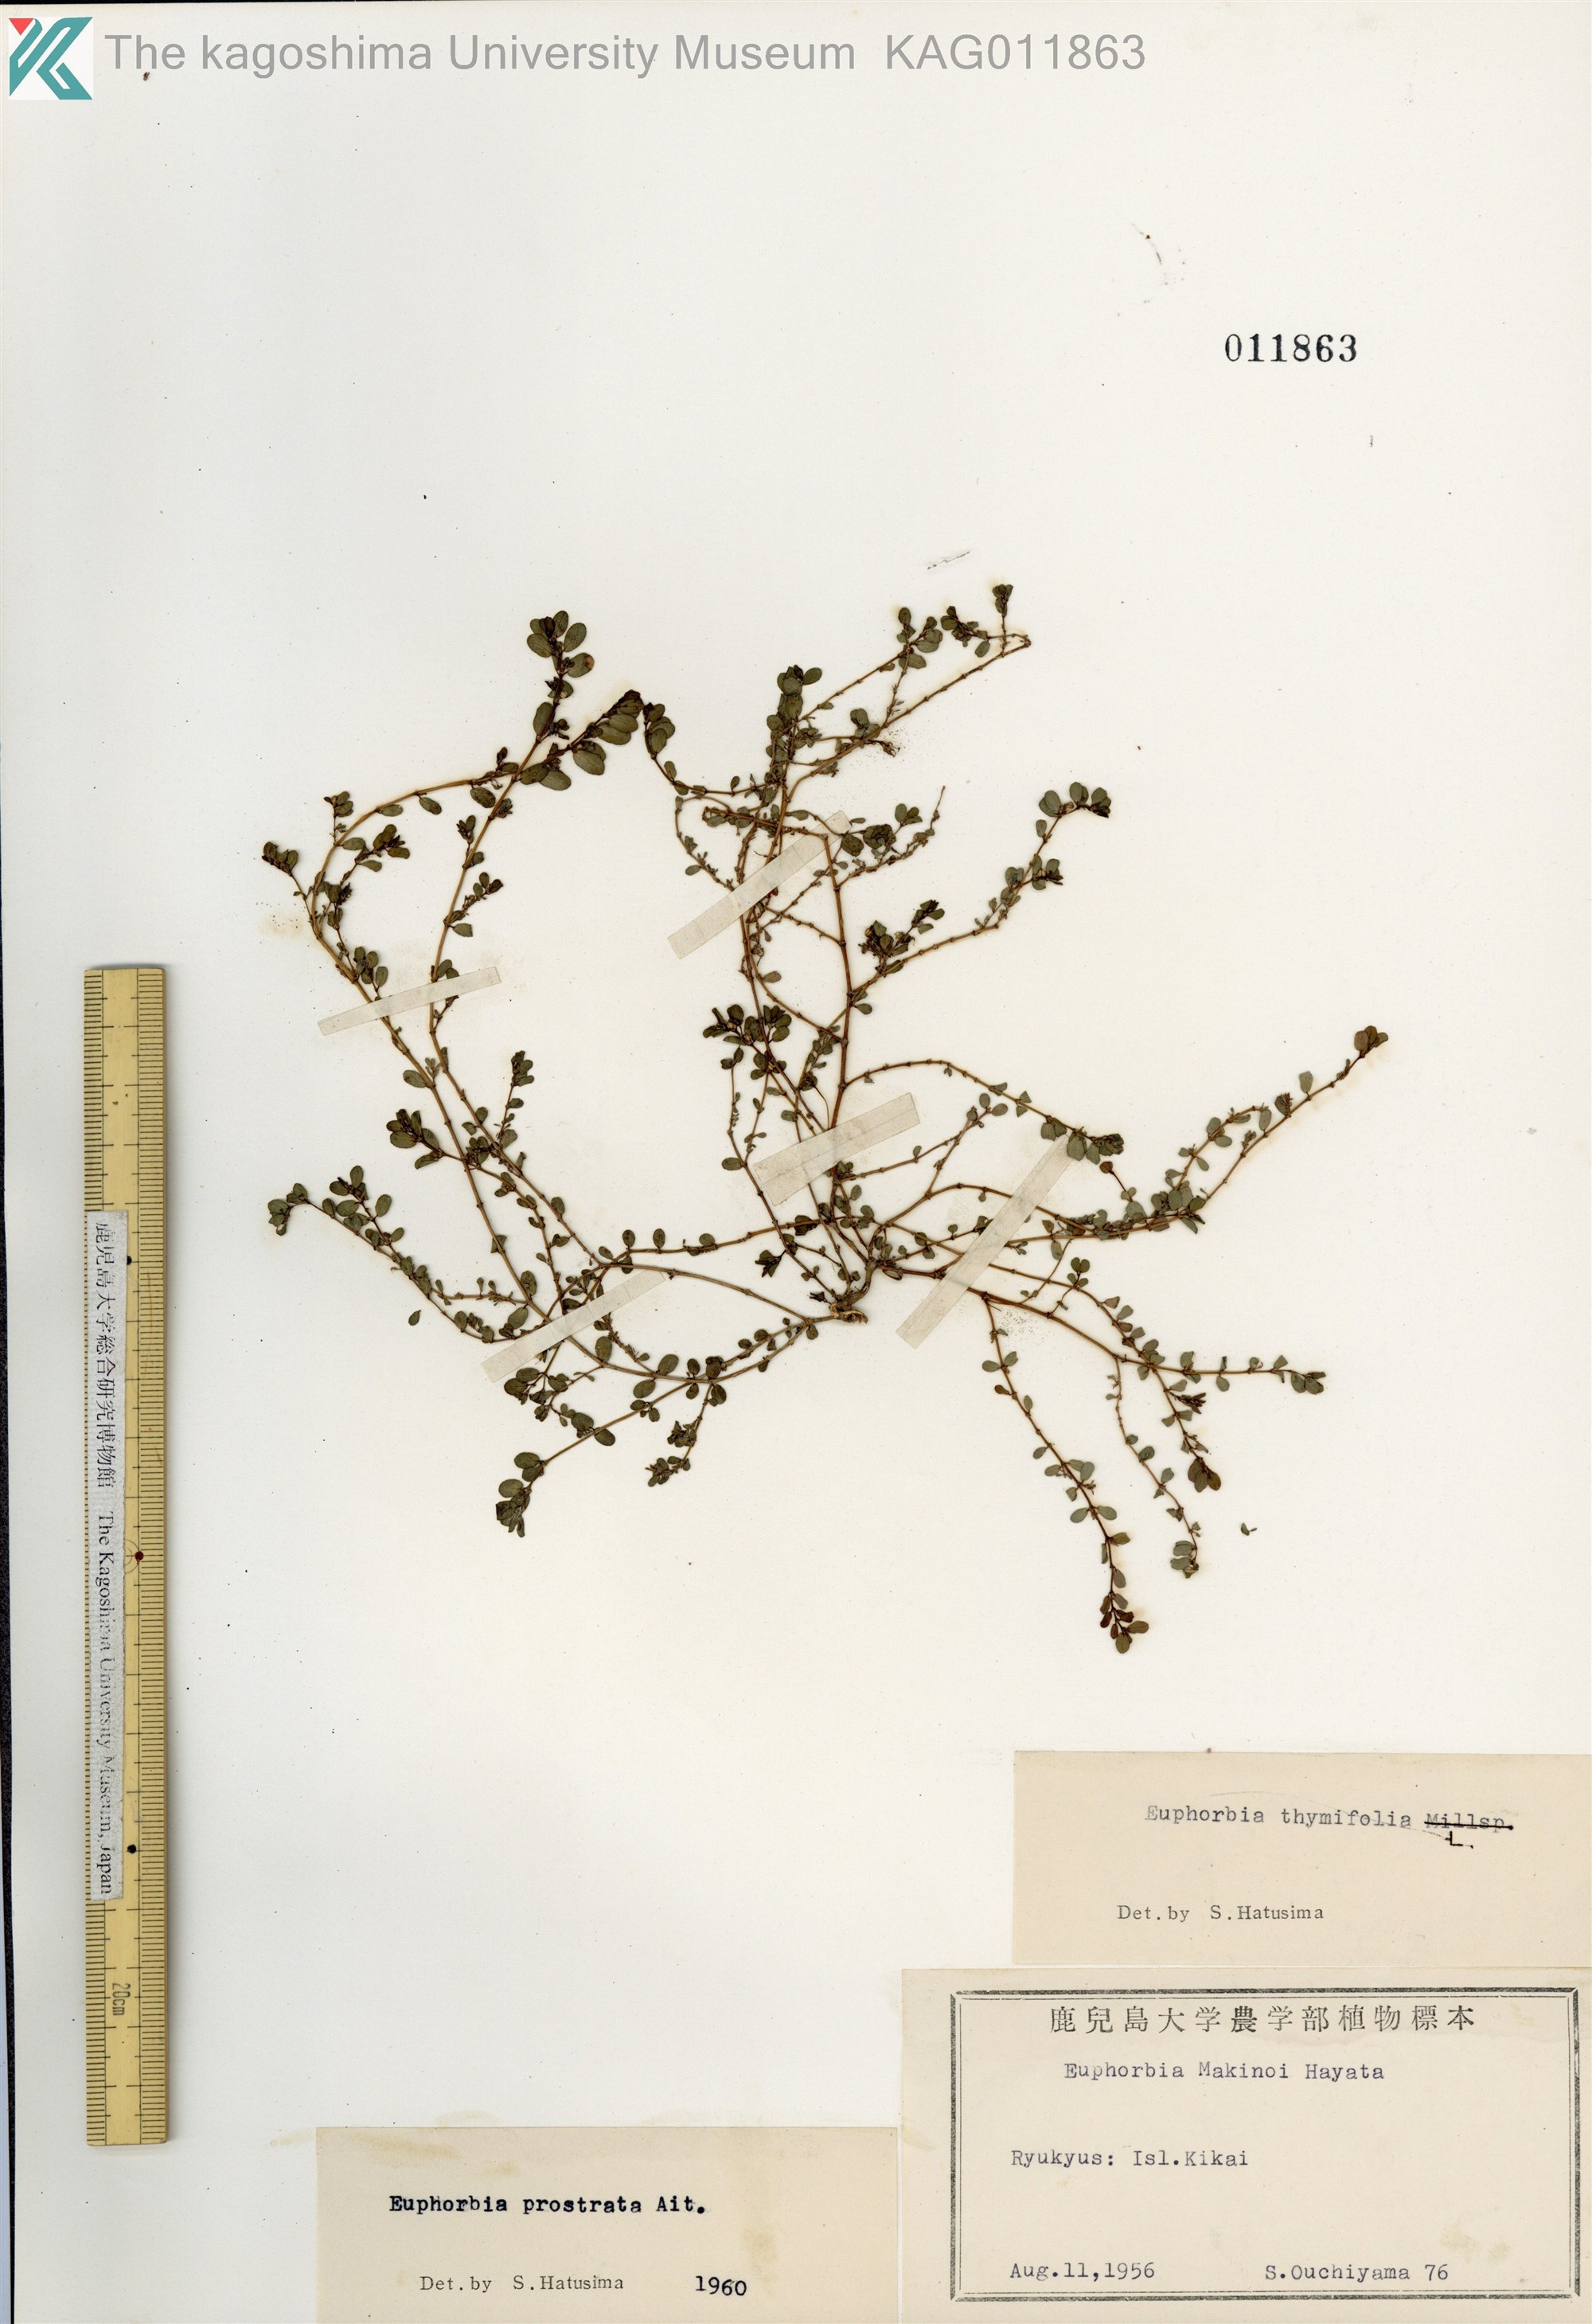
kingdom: Plantae
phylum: Tracheophyta
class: Magnoliopsida
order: Malpighiales
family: Euphorbiaceae
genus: Euphorbia
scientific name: Euphorbia prostrata
